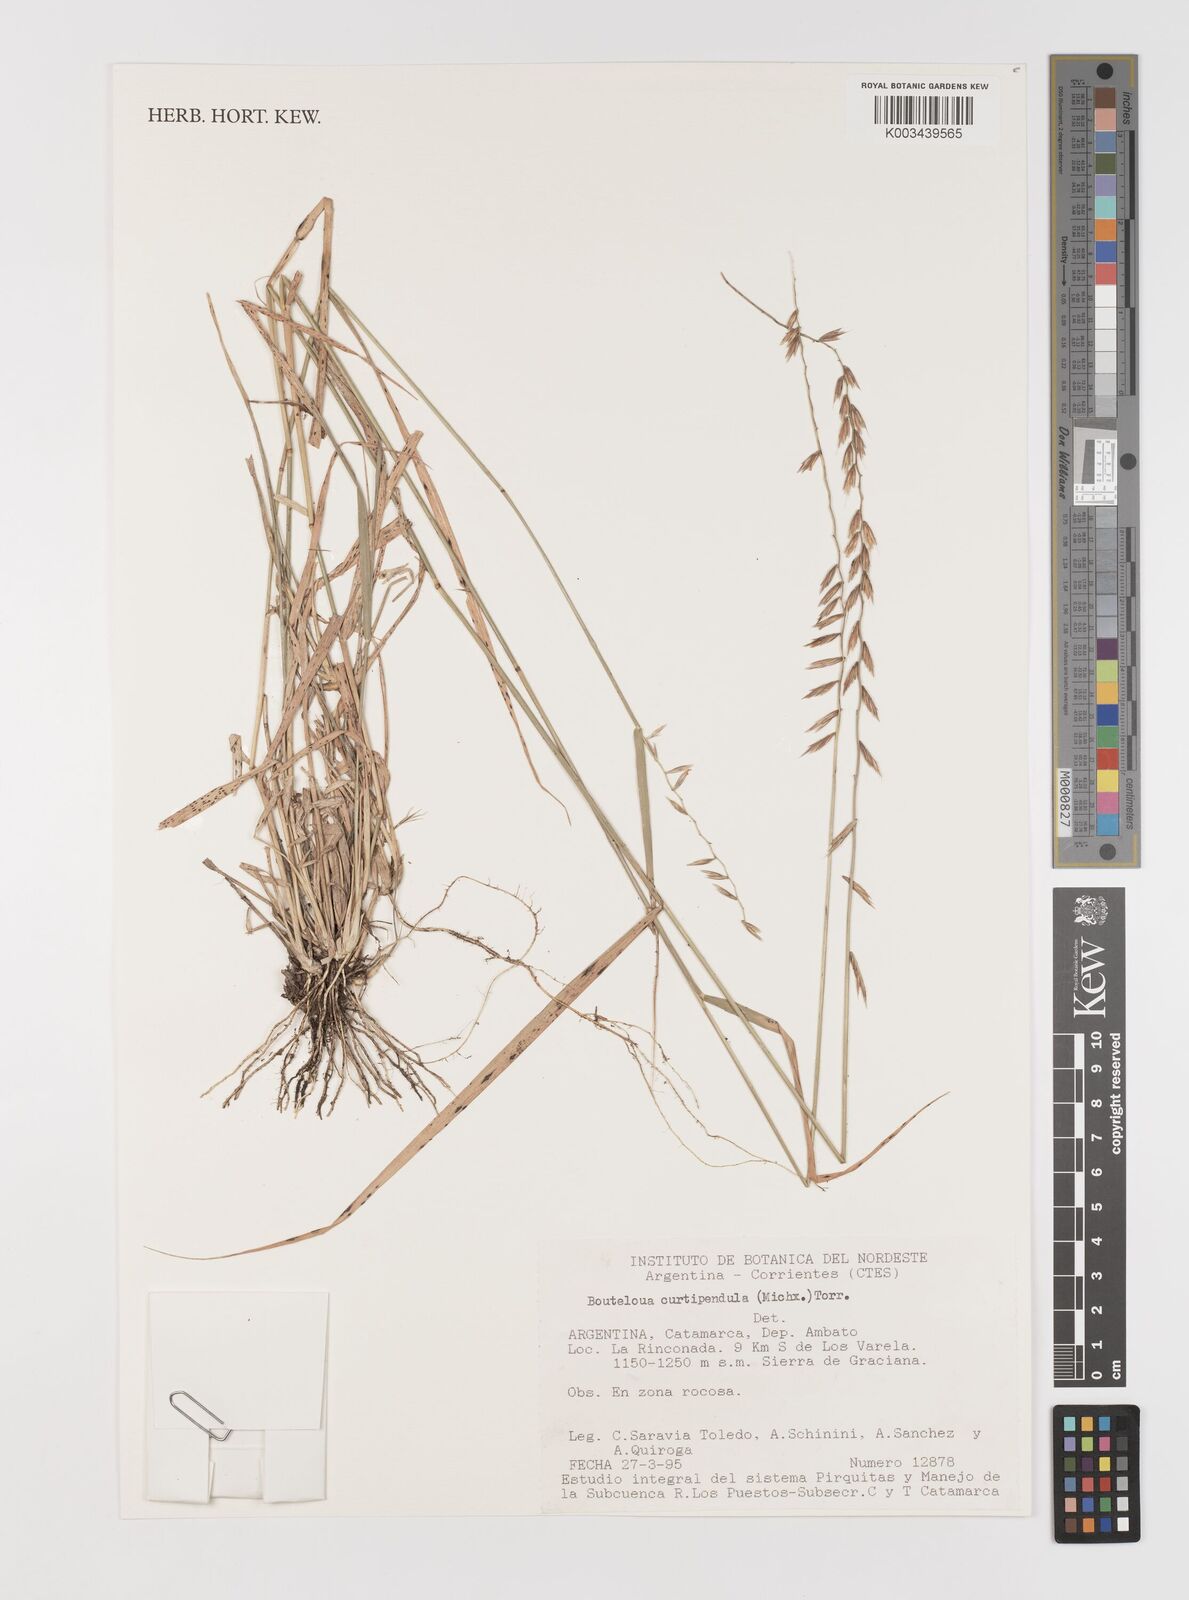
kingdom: Plantae
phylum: Tracheophyta
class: Liliopsida
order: Poales
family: Poaceae
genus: Bouteloua
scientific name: Bouteloua curtipendula
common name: Side-oats grama
